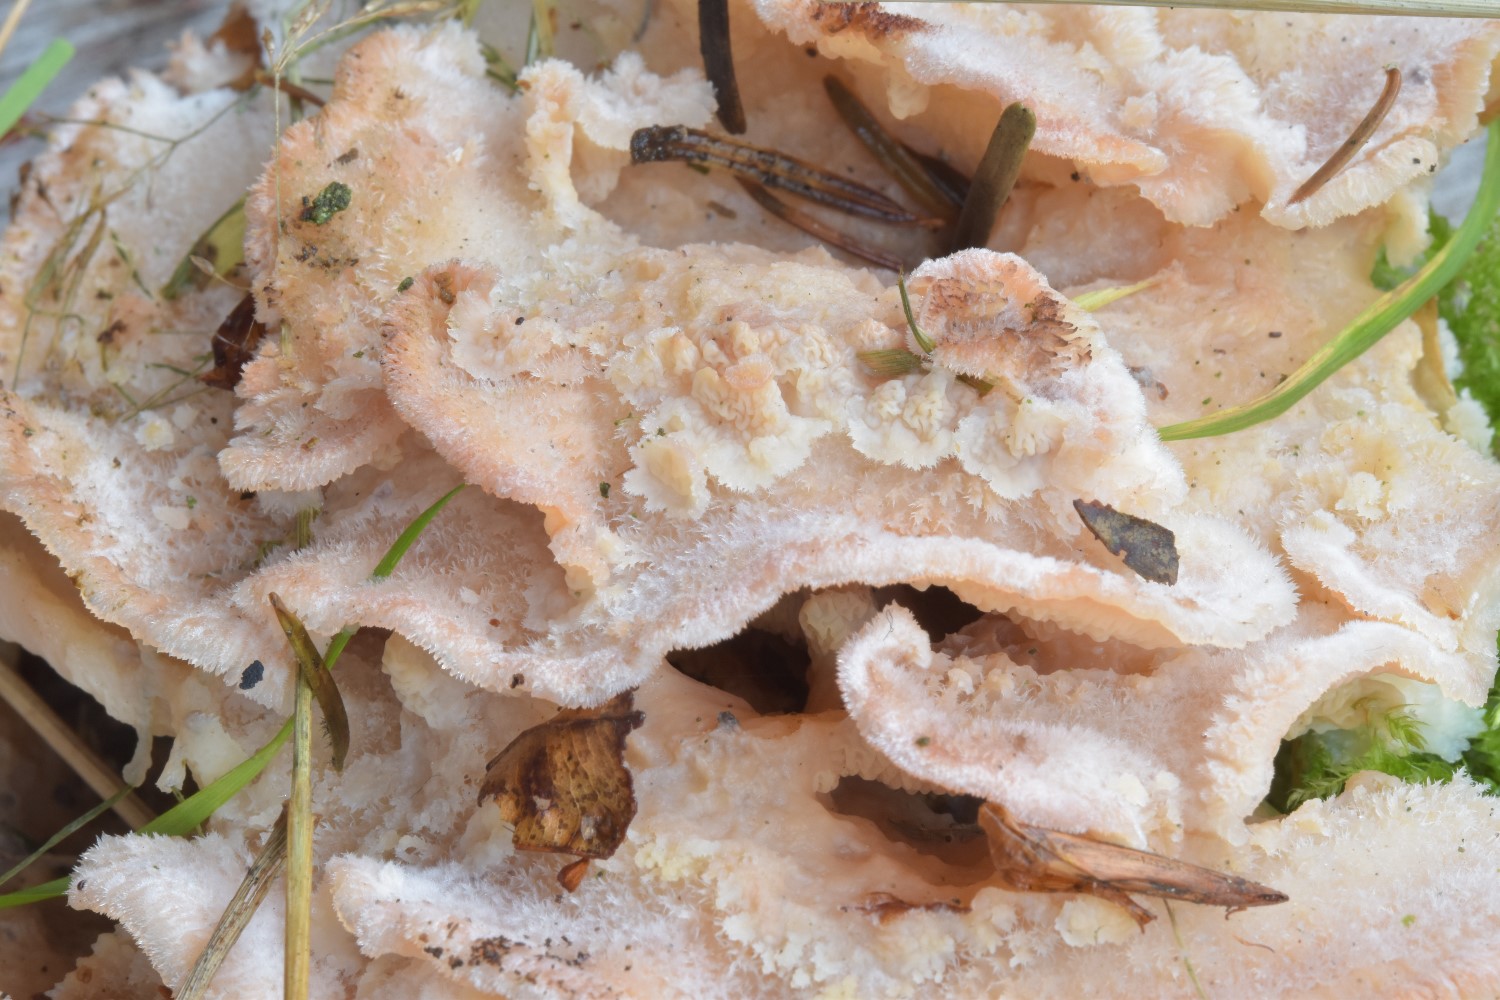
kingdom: Fungi
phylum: Basidiomycota
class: Agaricomycetes
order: Polyporales
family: Meruliaceae
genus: Phlebia
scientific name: Phlebia tremellosa
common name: bævrende åresvamp
